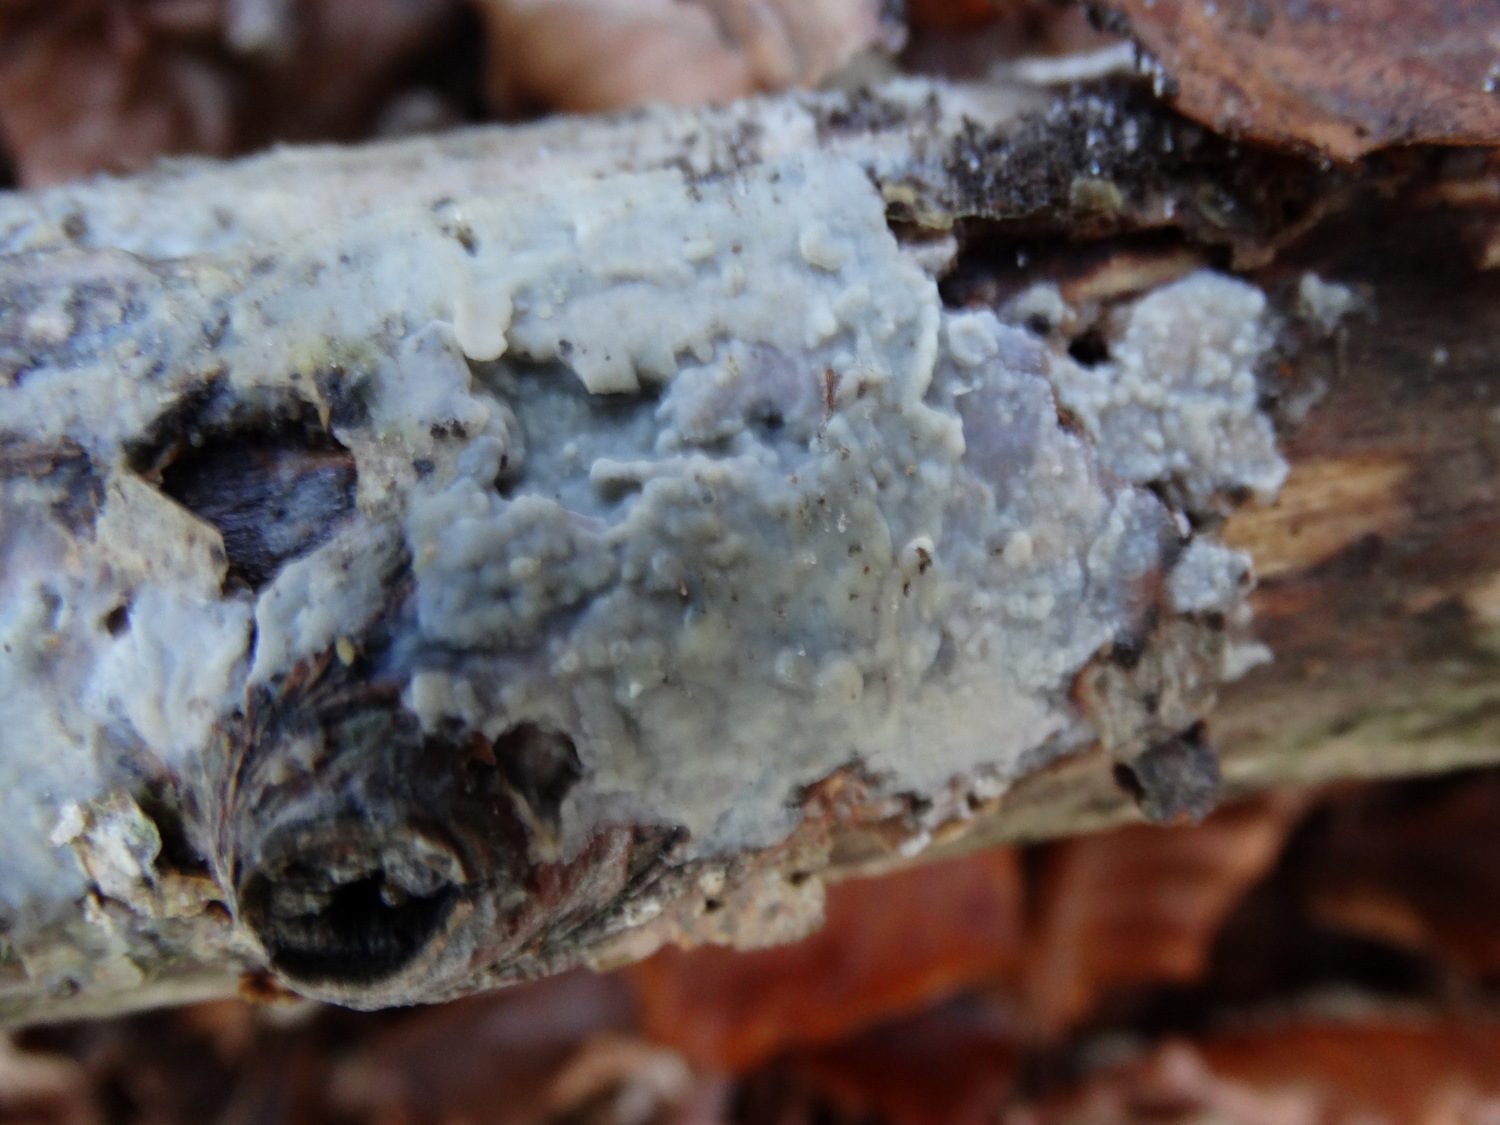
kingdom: Fungi
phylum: Basidiomycota
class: Agaricomycetes
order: Agaricales
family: Radulomycetaceae
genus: Radulomyces
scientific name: Radulomyces confluens
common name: glat naftalinskind
